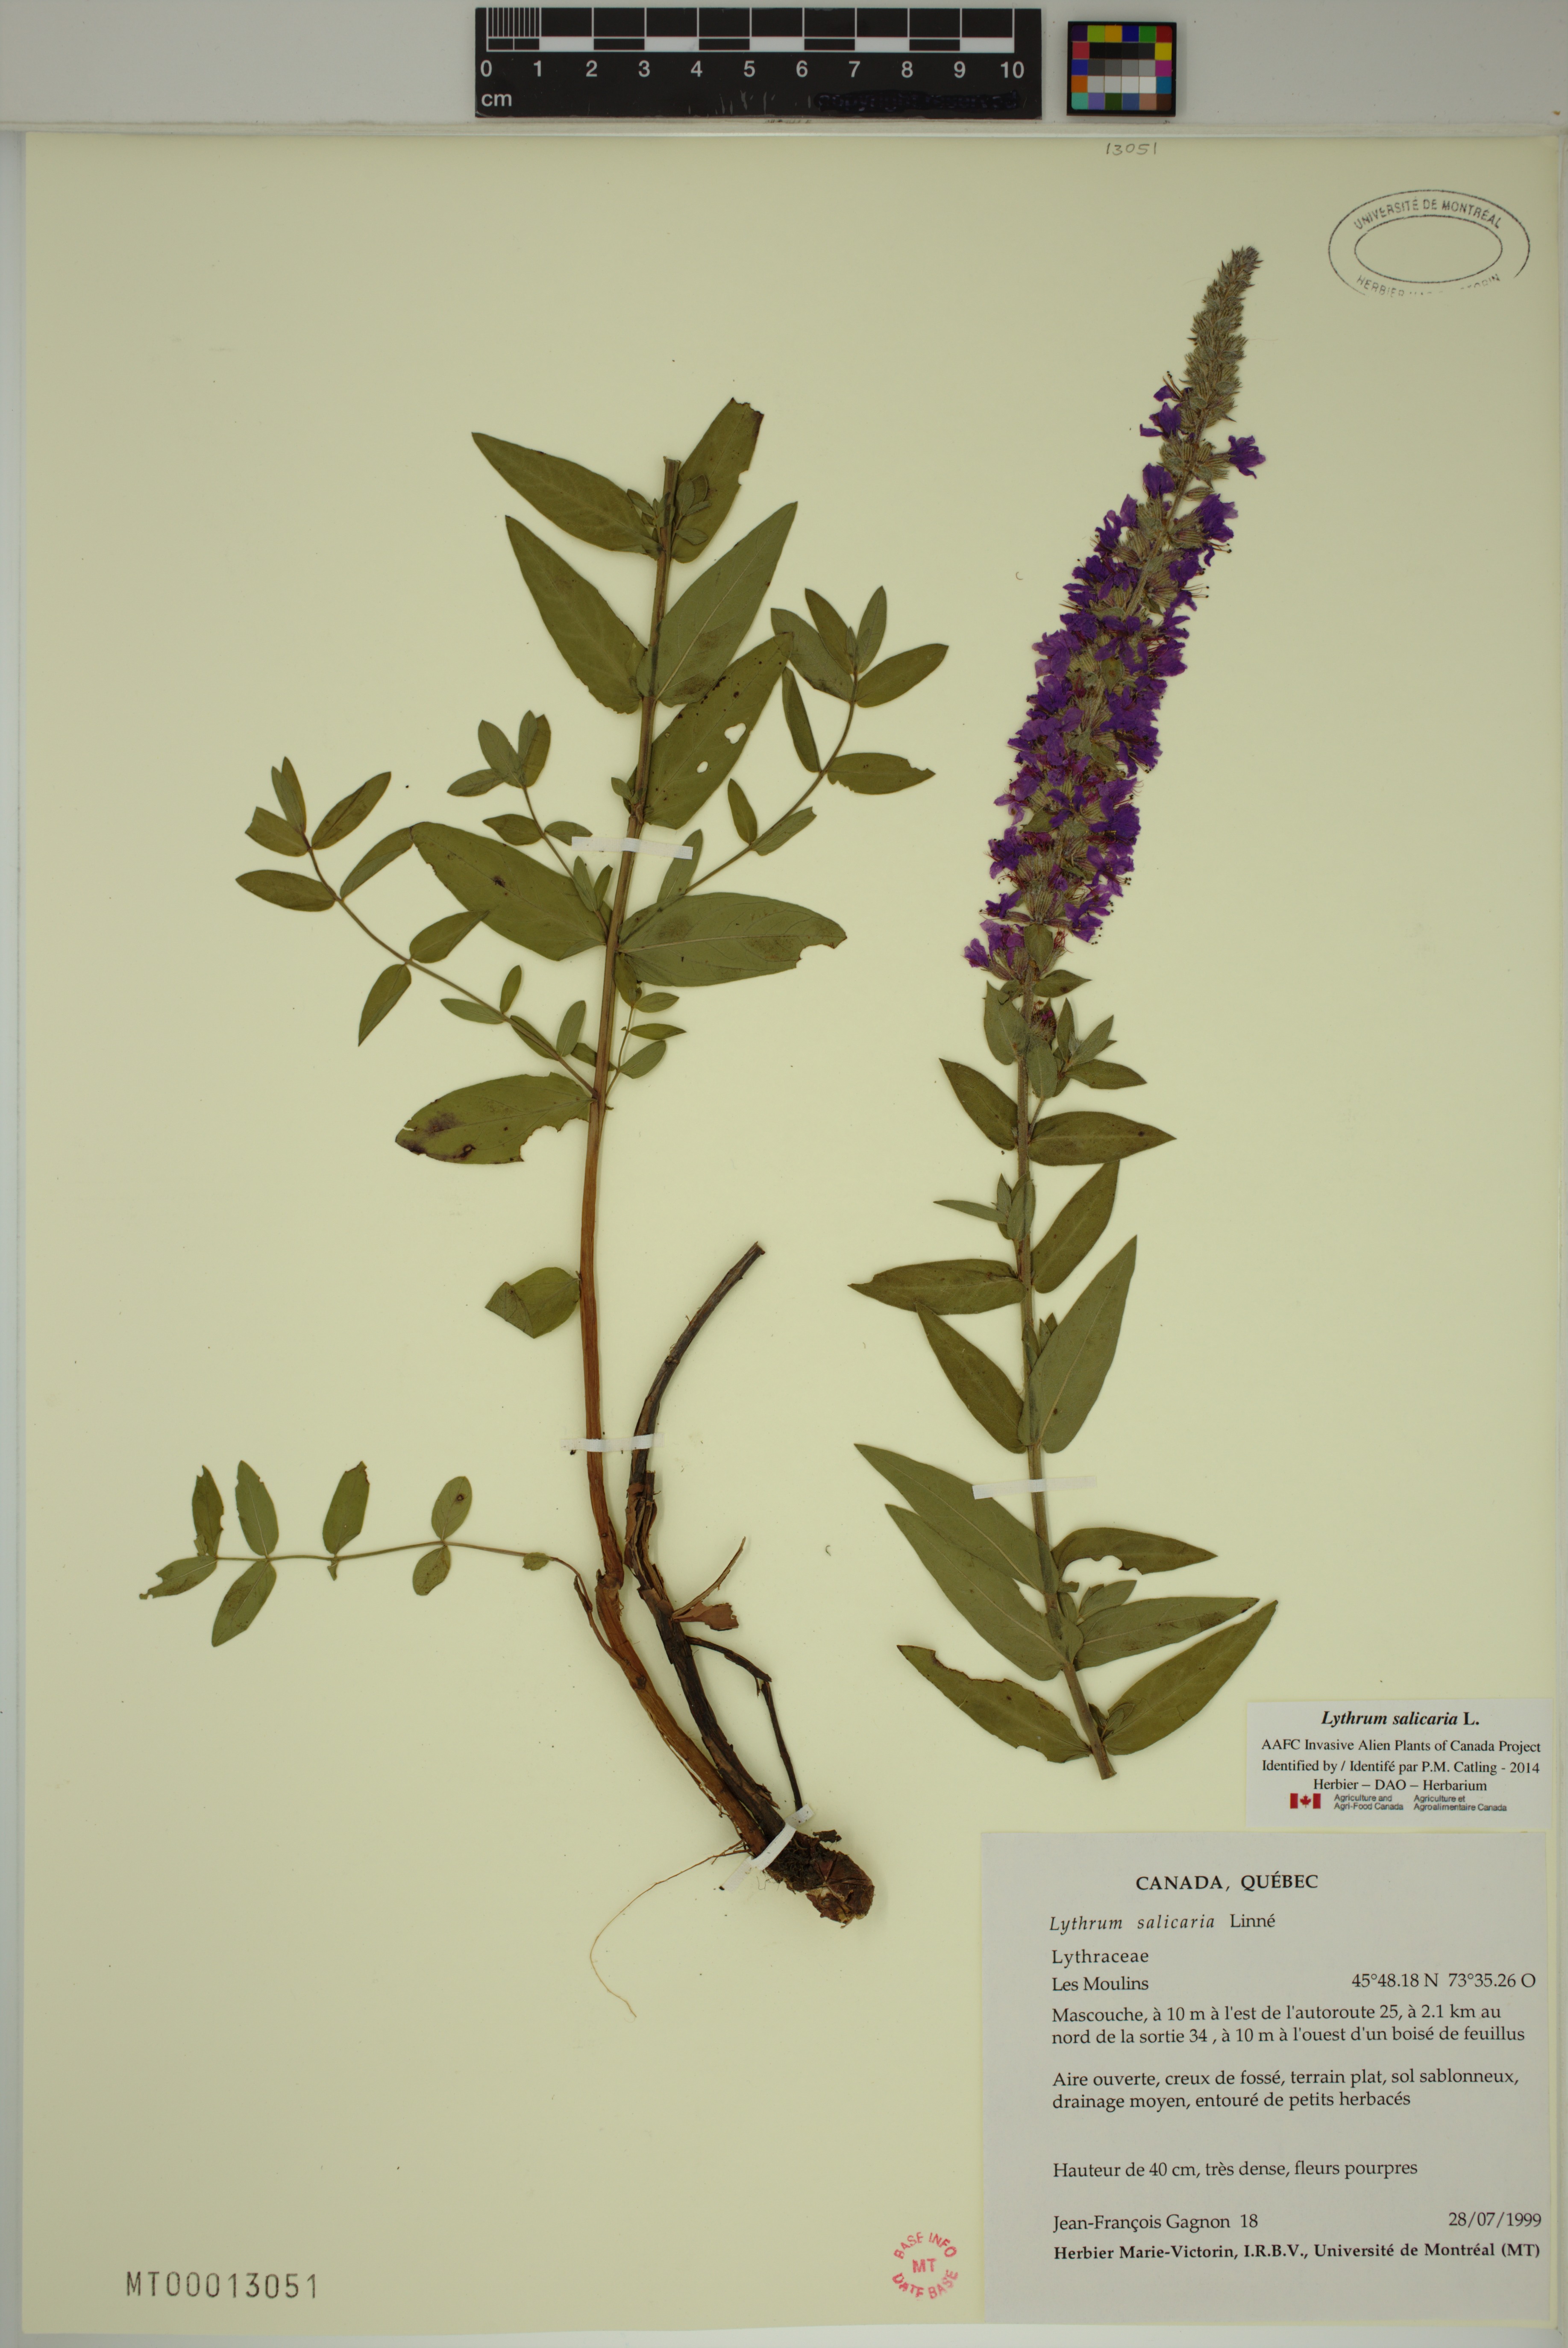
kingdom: Plantae
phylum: Tracheophyta
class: Magnoliopsida
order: Myrtales
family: Lythraceae
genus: Lythrum
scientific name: Lythrum salicaria
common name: Purple loosestrife
